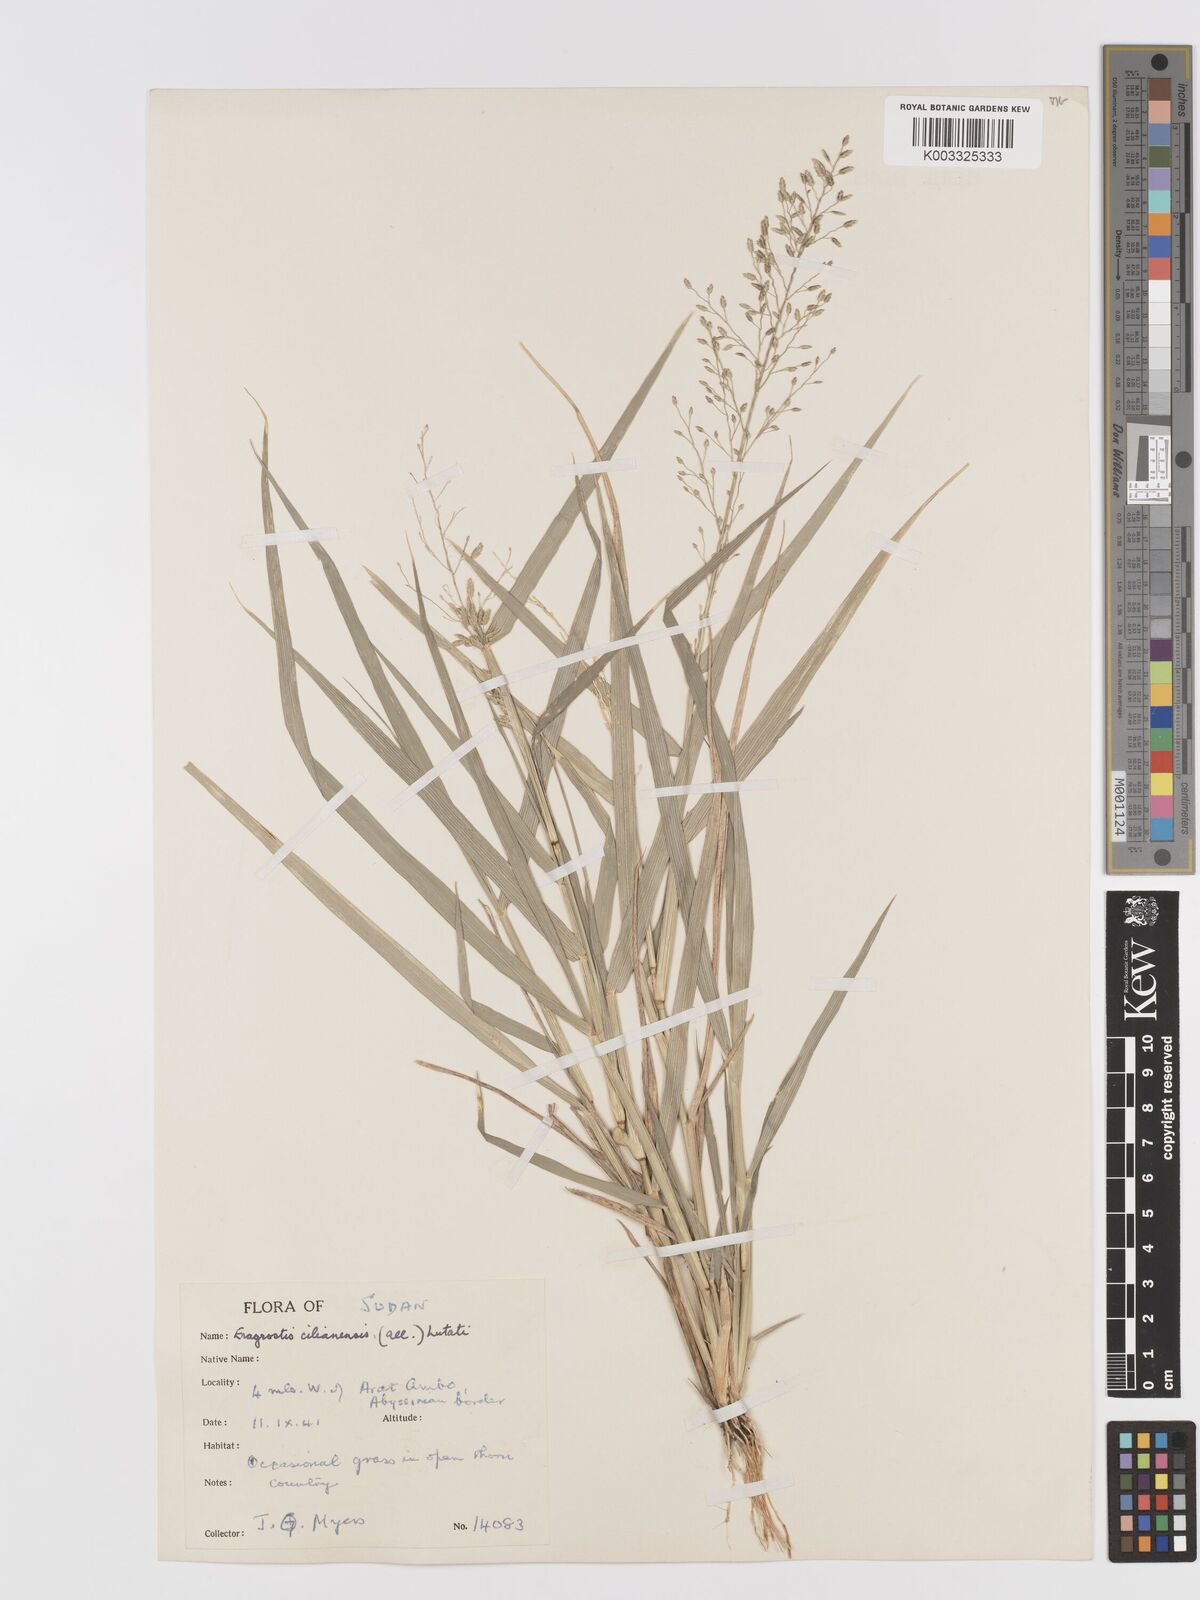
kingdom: Plantae
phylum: Tracheophyta
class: Liliopsida
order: Poales
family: Poaceae
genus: Eragrostis
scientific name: Eragrostis cilianensis
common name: Stinkgrass
